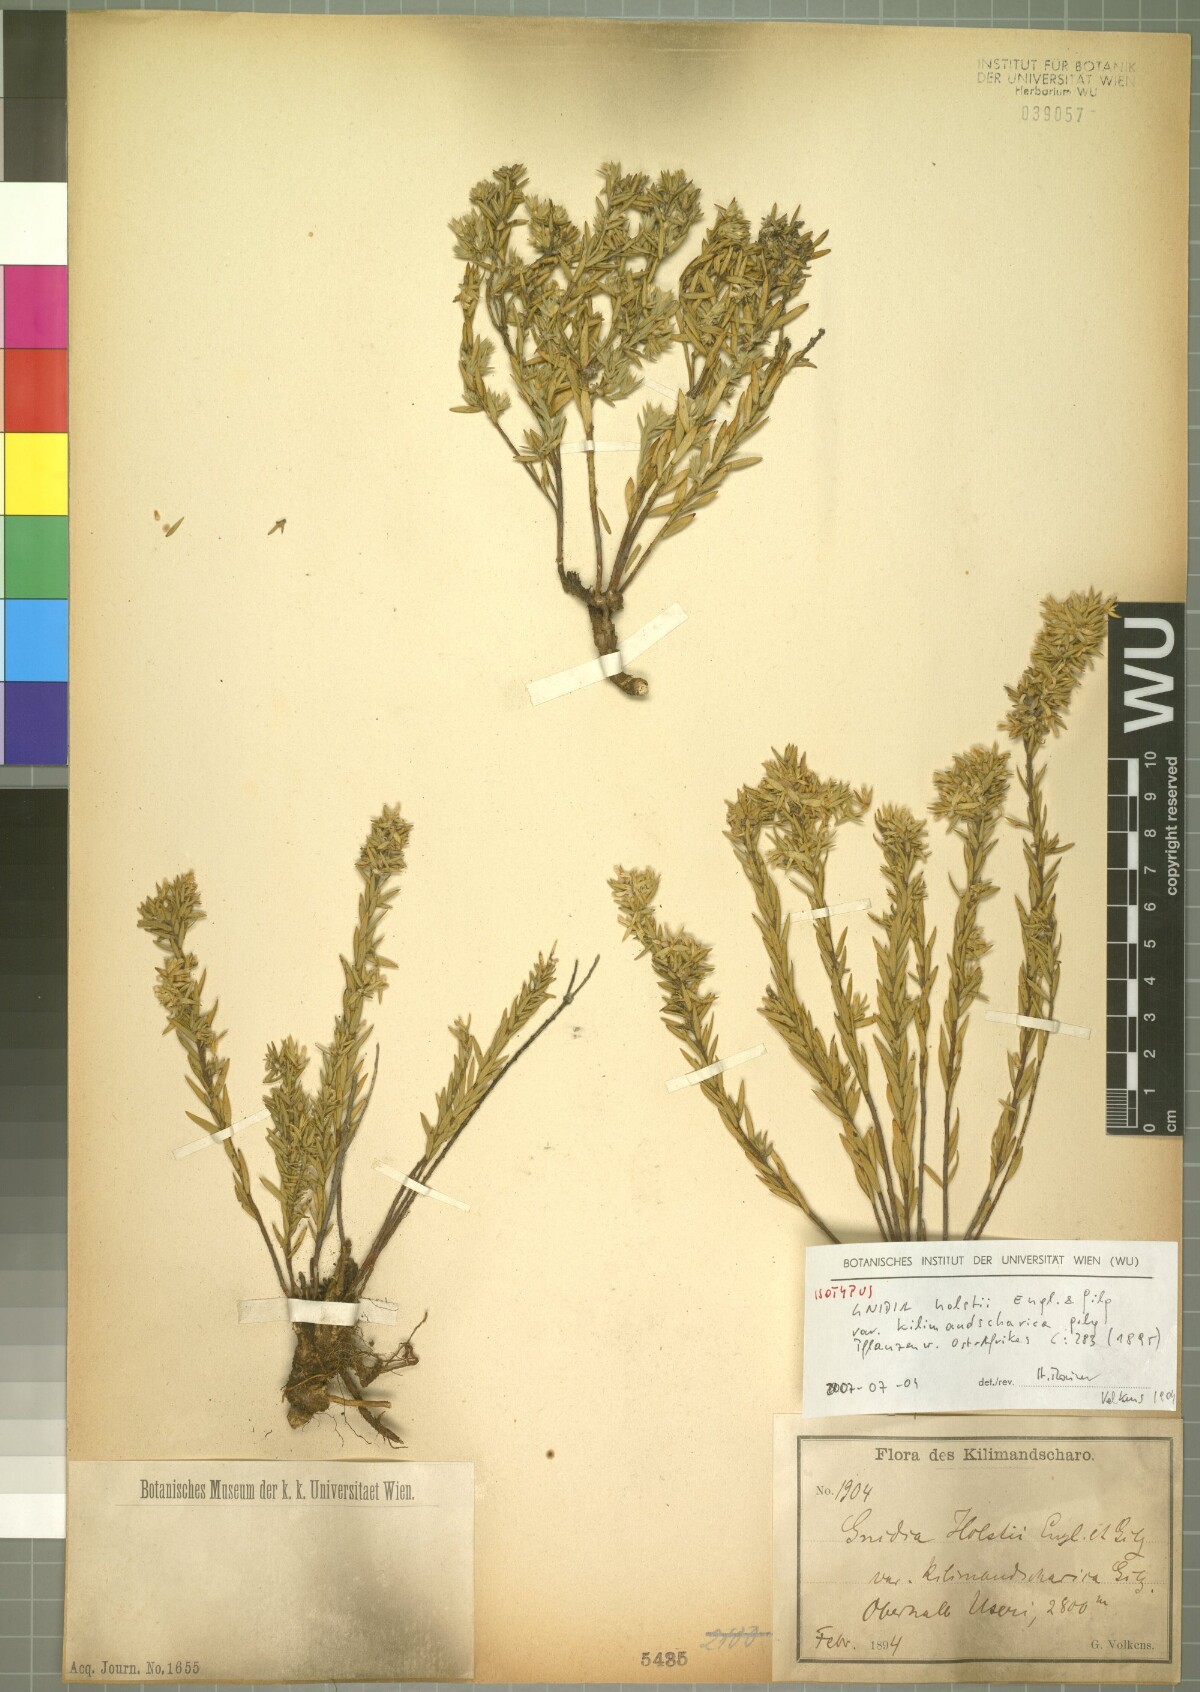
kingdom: Plantae
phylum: Tracheophyta
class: Magnoliopsida
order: Malvales
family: Thymelaeaceae
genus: Gnidia
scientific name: Gnidia fastigiata
